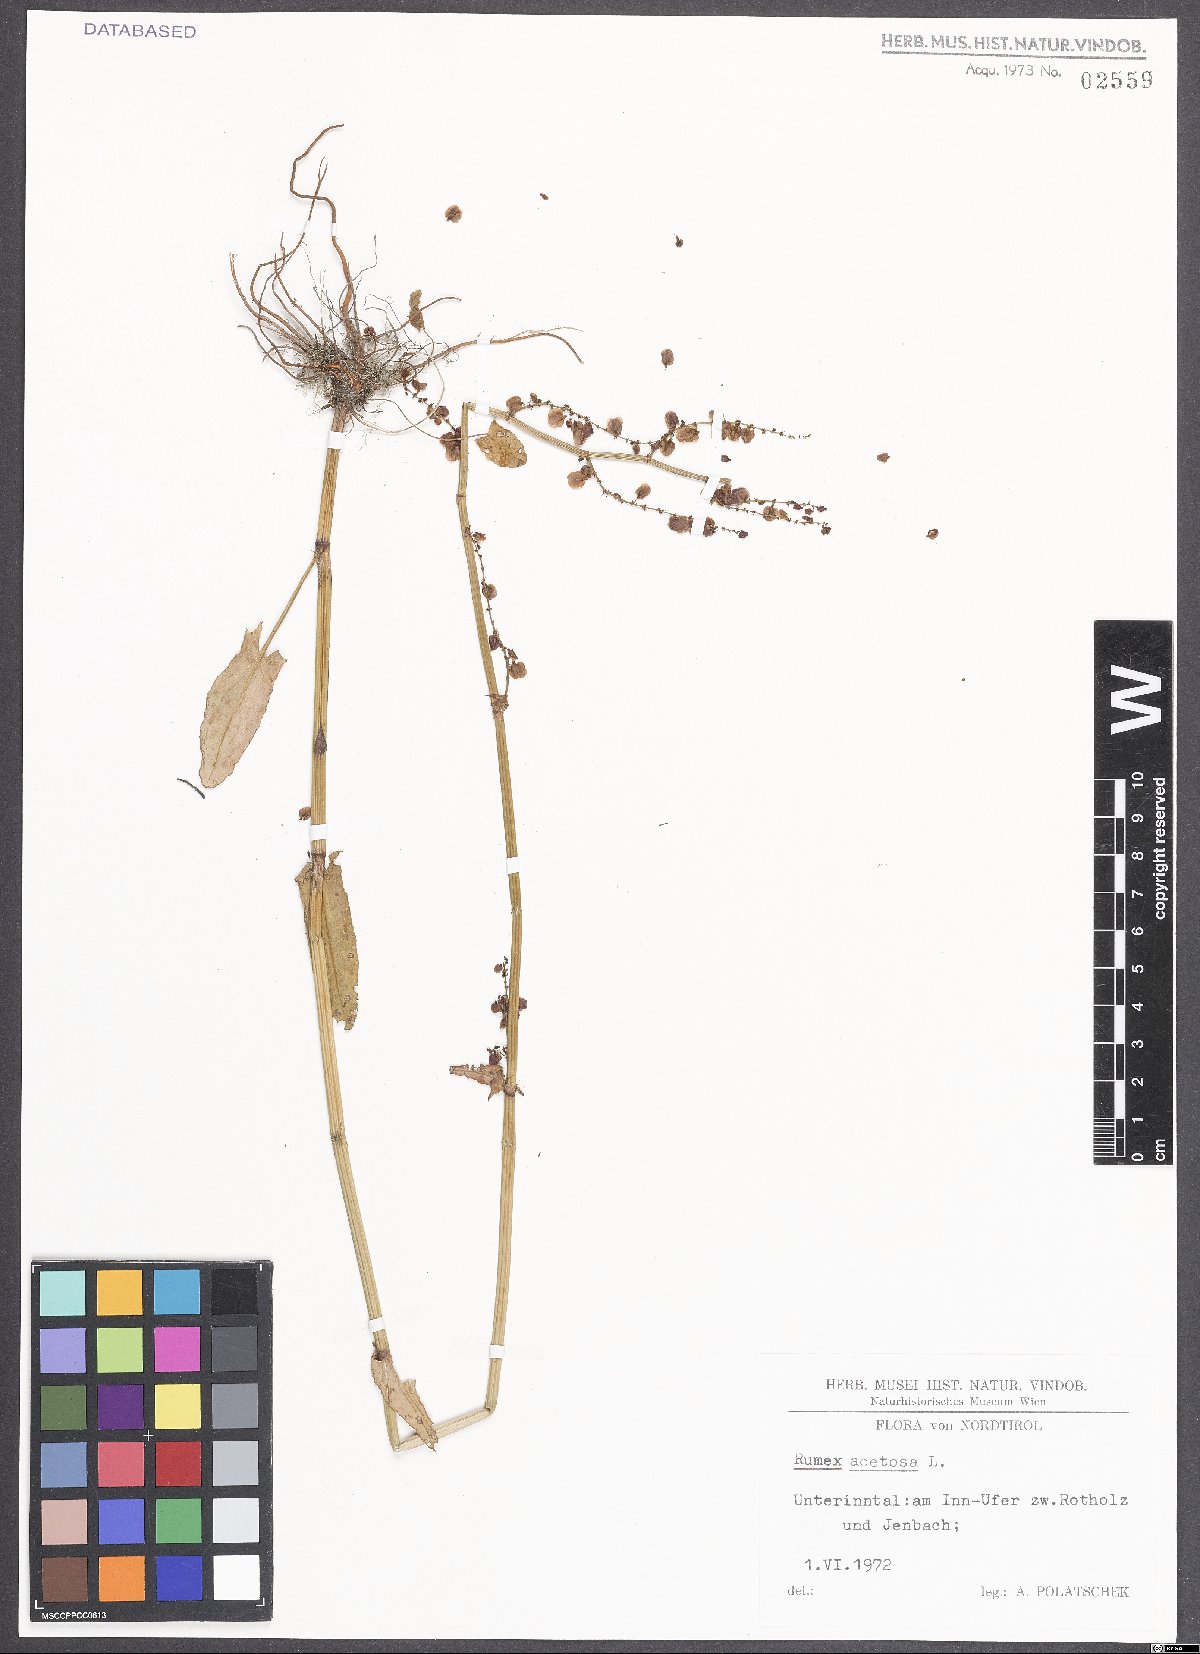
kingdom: Plantae
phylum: Tracheophyta
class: Magnoliopsida
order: Caryophyllales
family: Polygonaceae
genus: Rumex
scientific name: Rumex acetosa
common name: Garden sorrel
